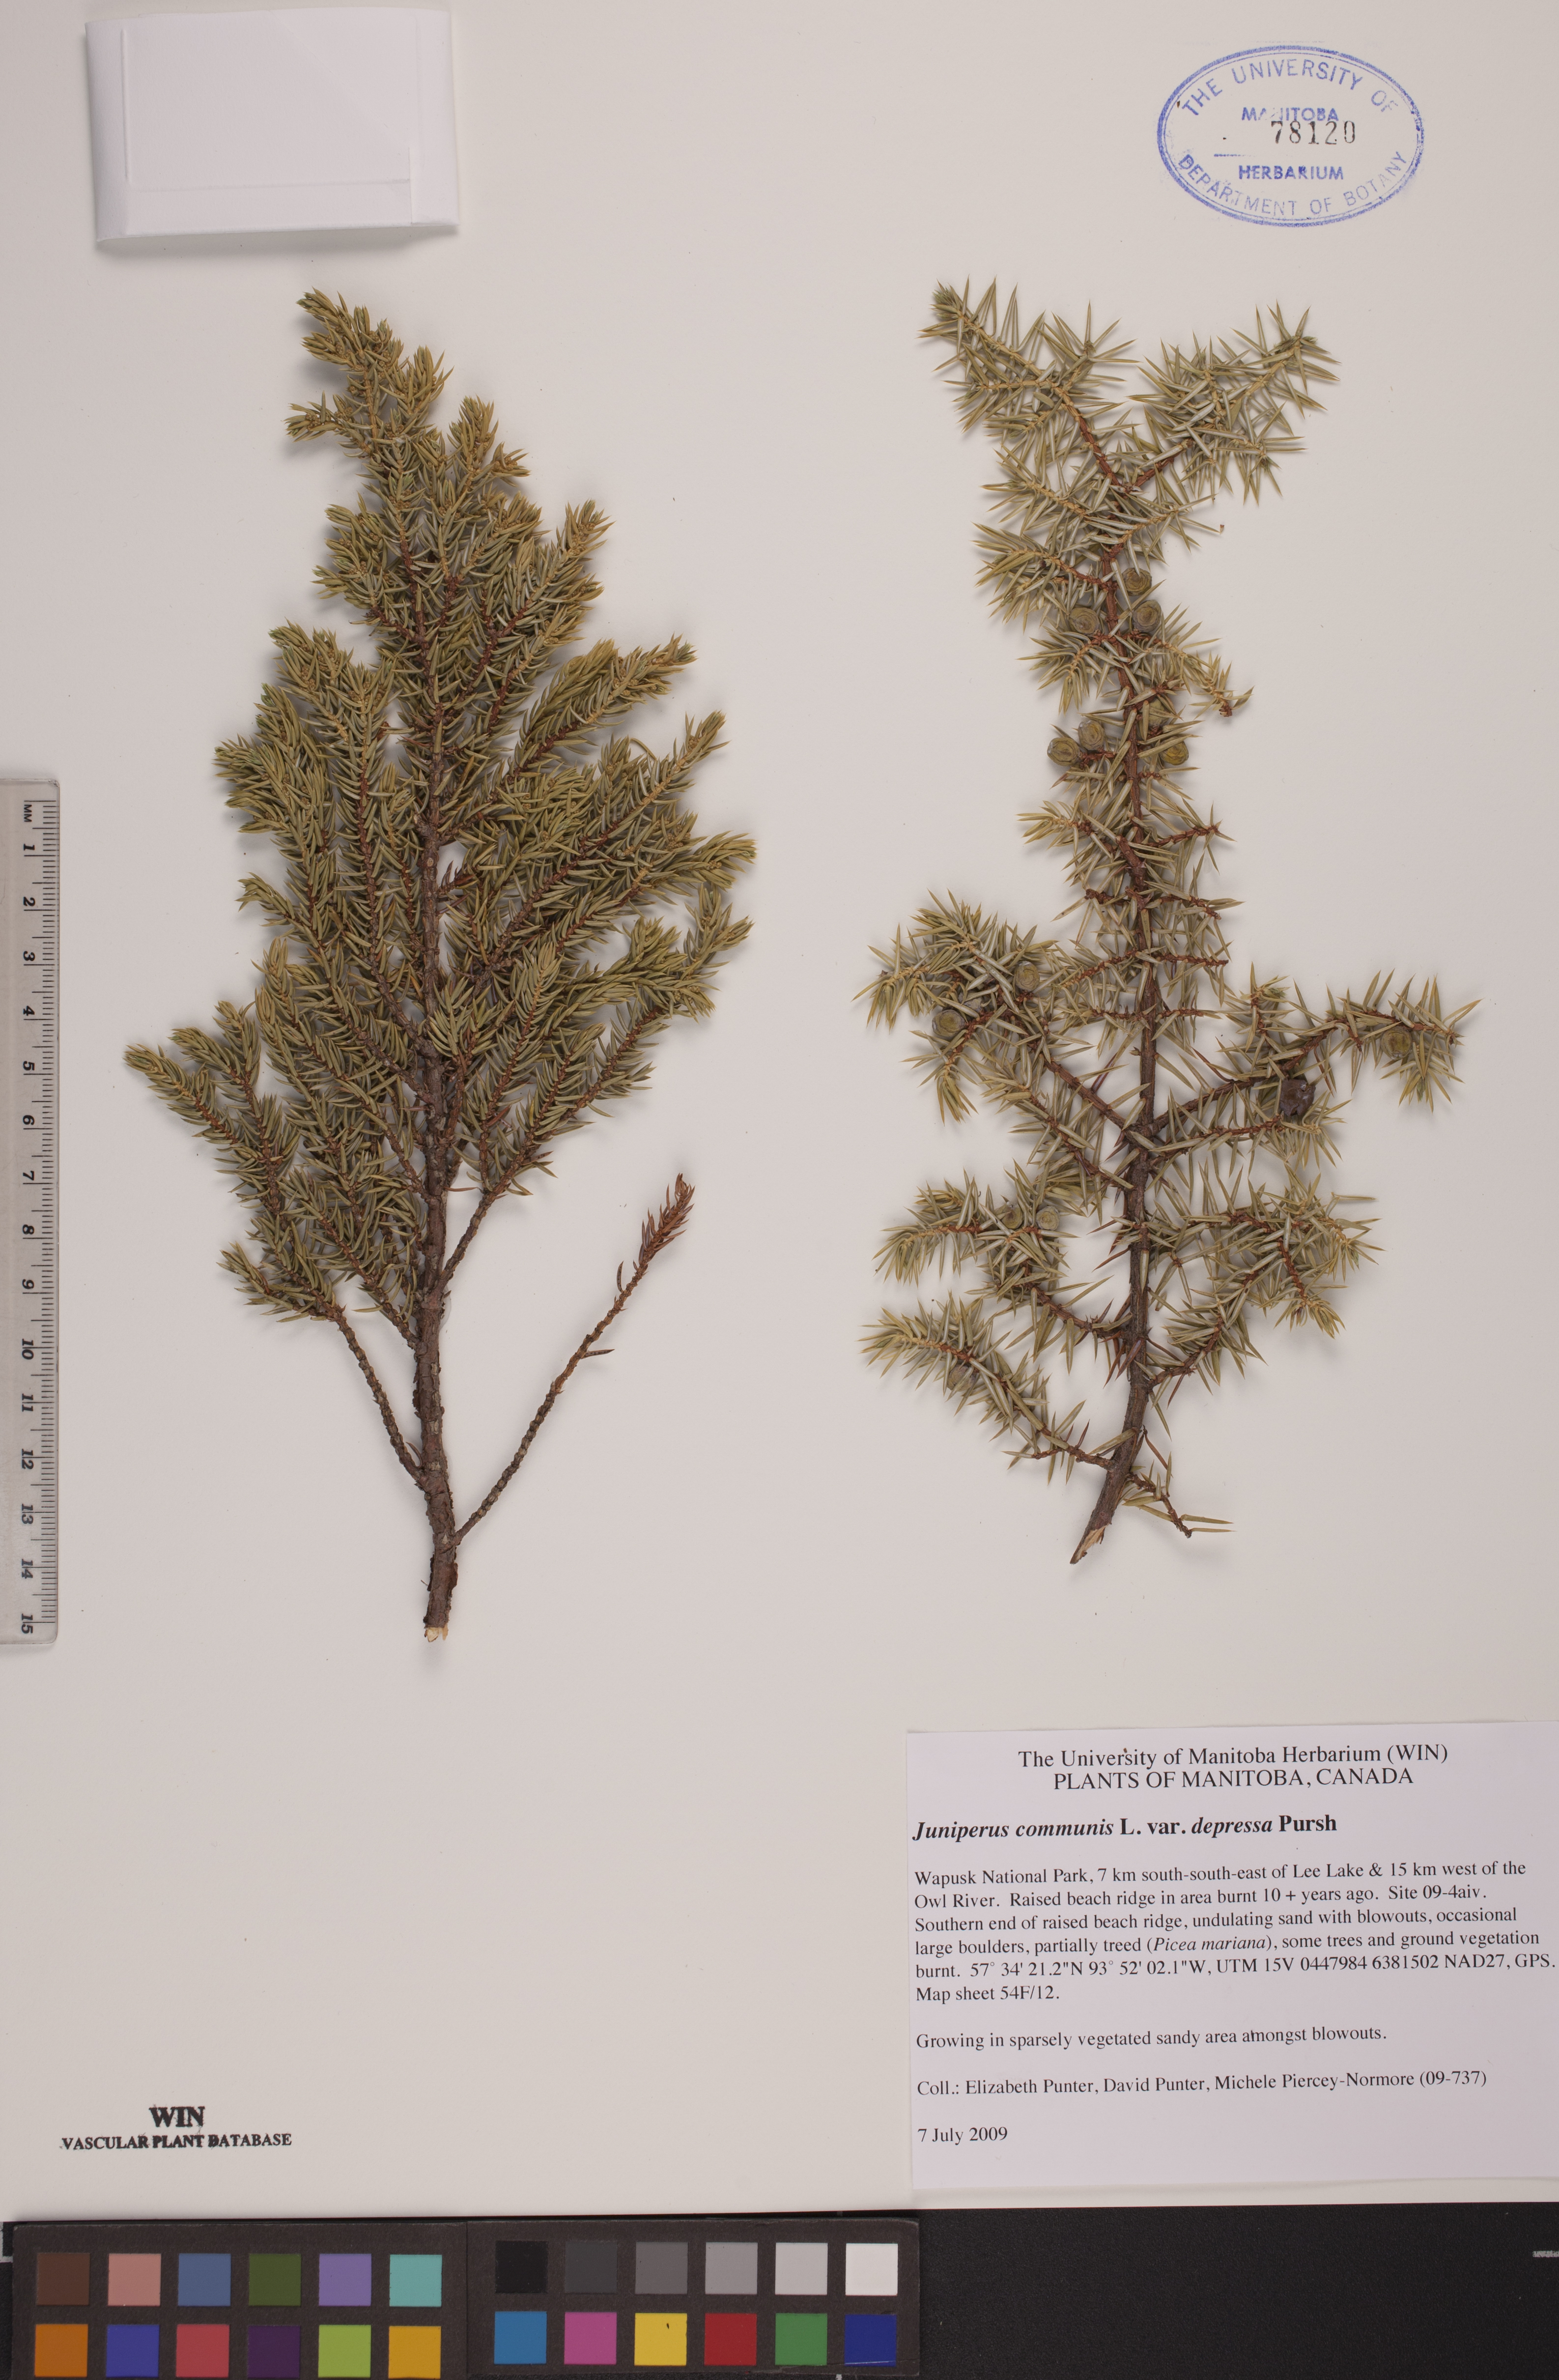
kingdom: Plantae
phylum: Tracheophyta
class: Pinopsida
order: Pinales
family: Cupressaceae
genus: Juniperus
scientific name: Juniperus communis
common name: Common juniper
